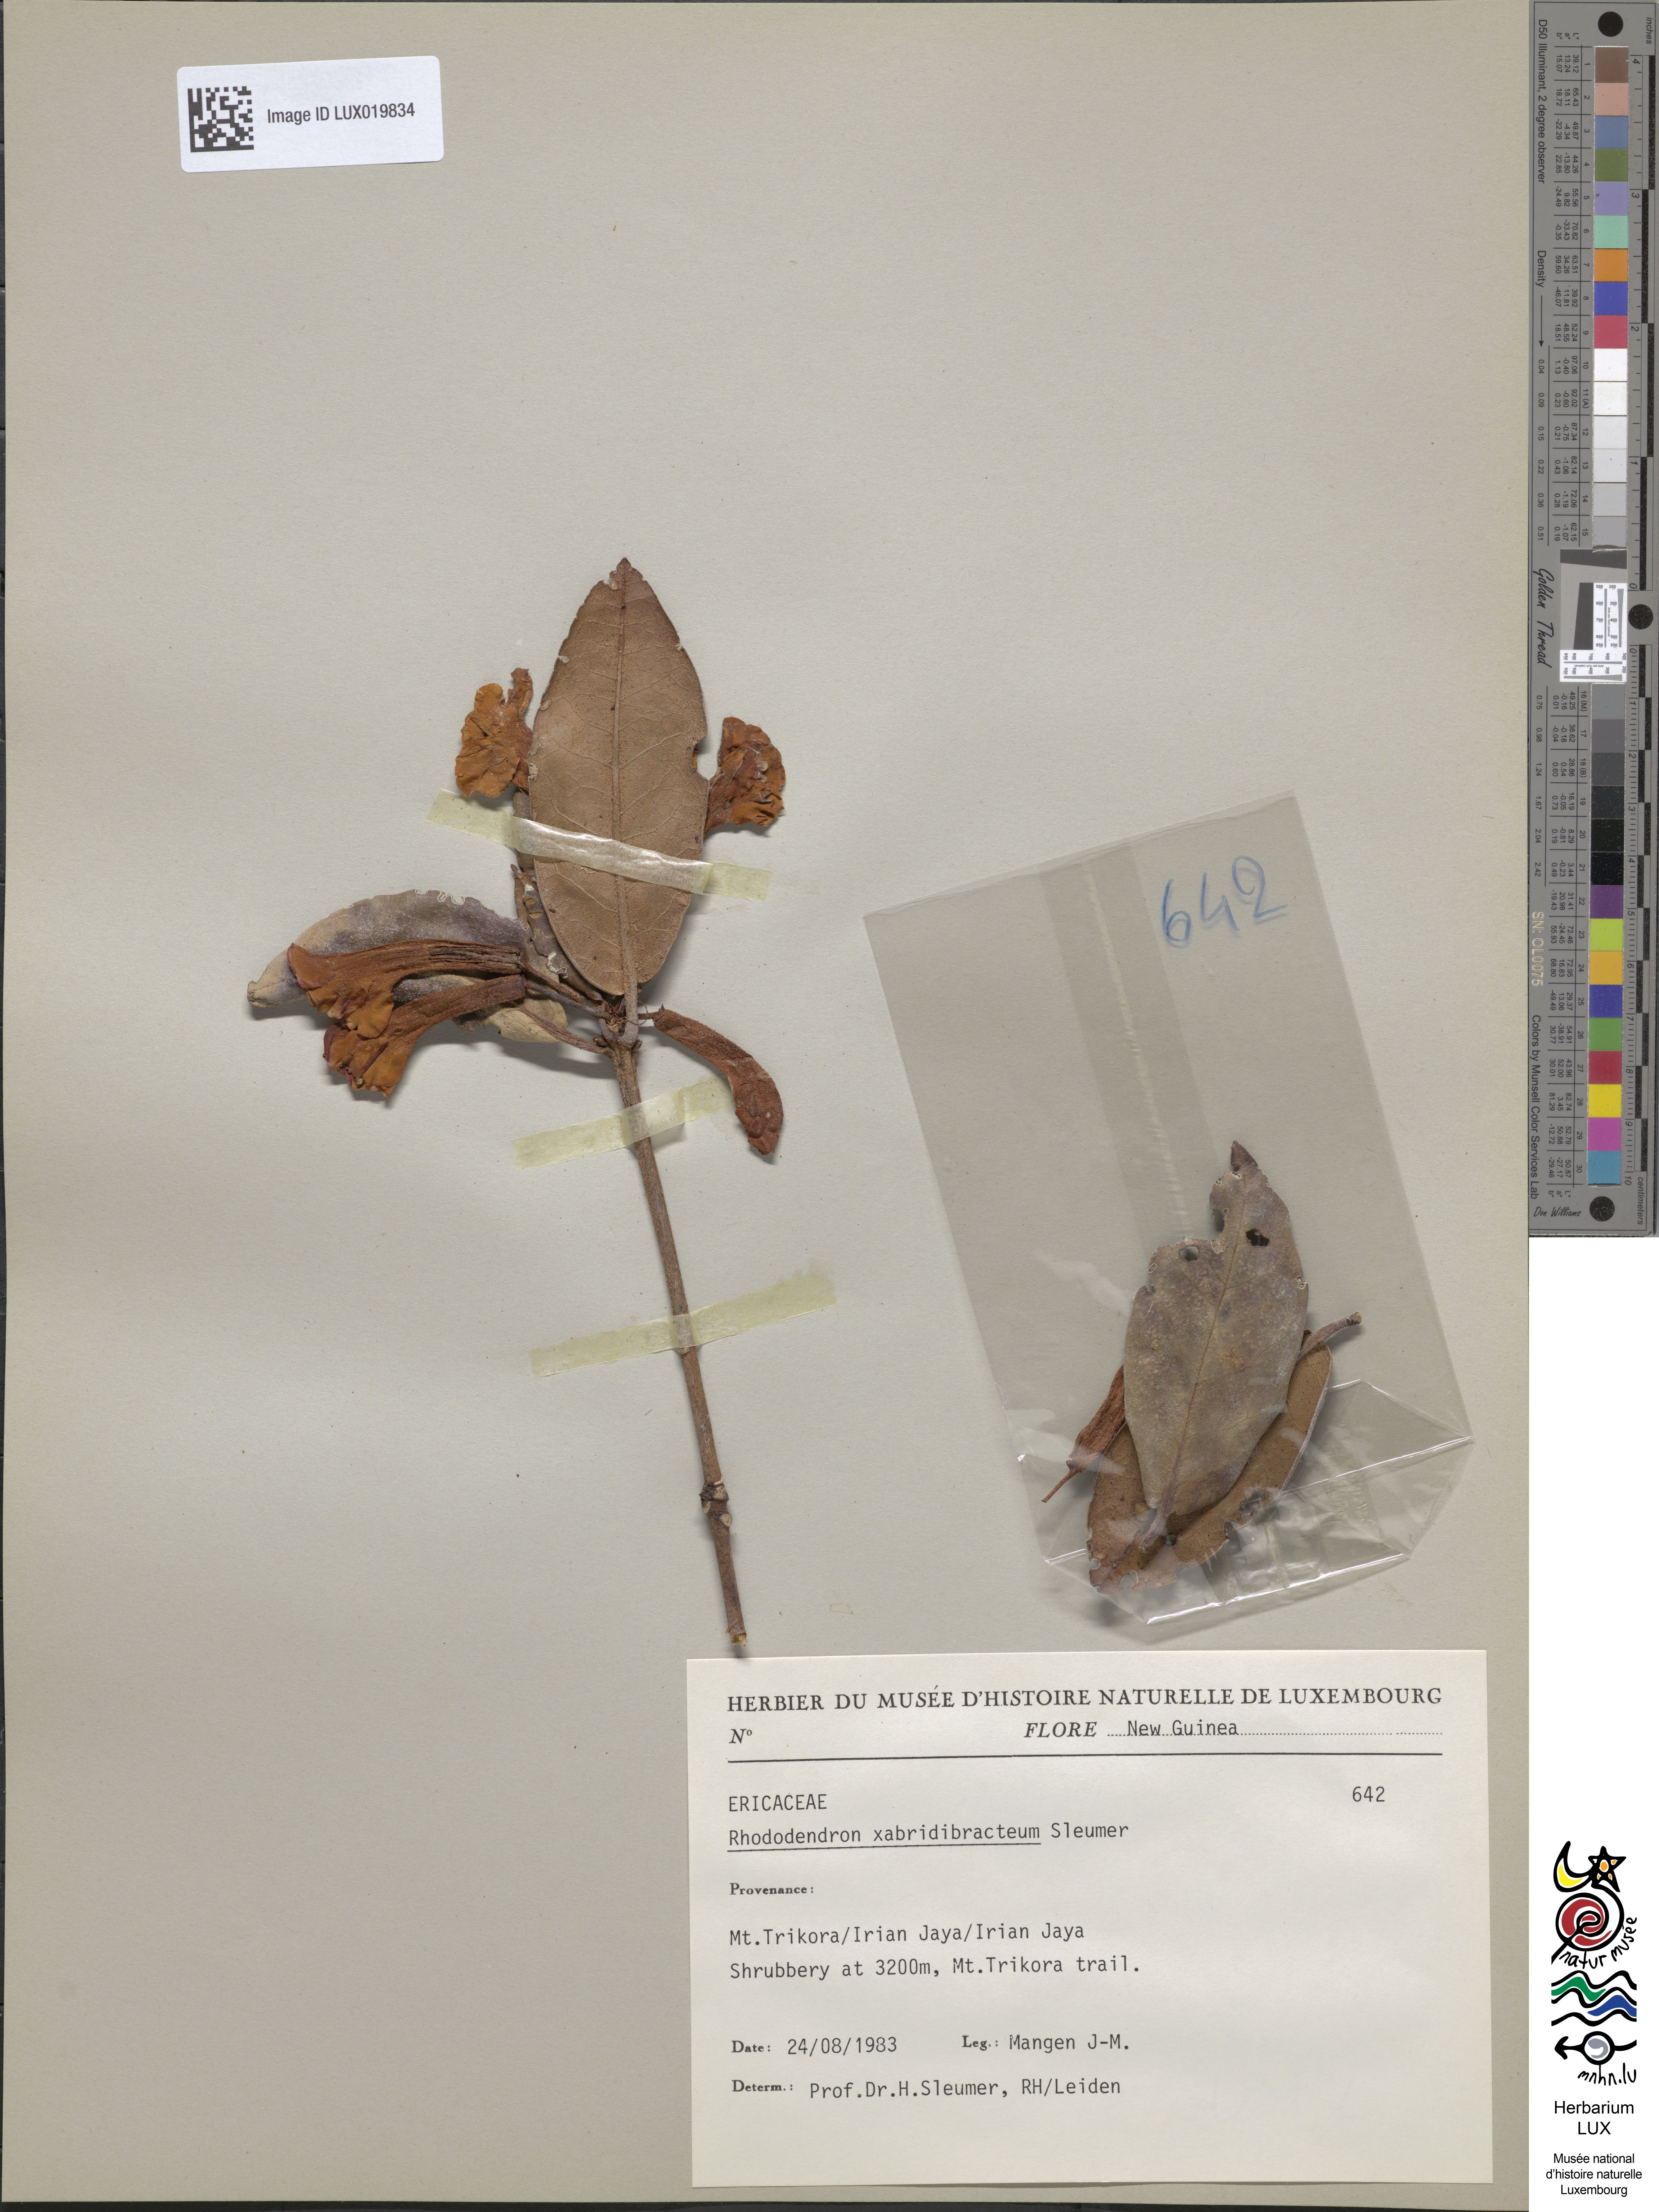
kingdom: Plantae
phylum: Tracheophyta
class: Magnoliopsida
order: Ericales
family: Ericaceae
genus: Rhododendron
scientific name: Rhododendron
